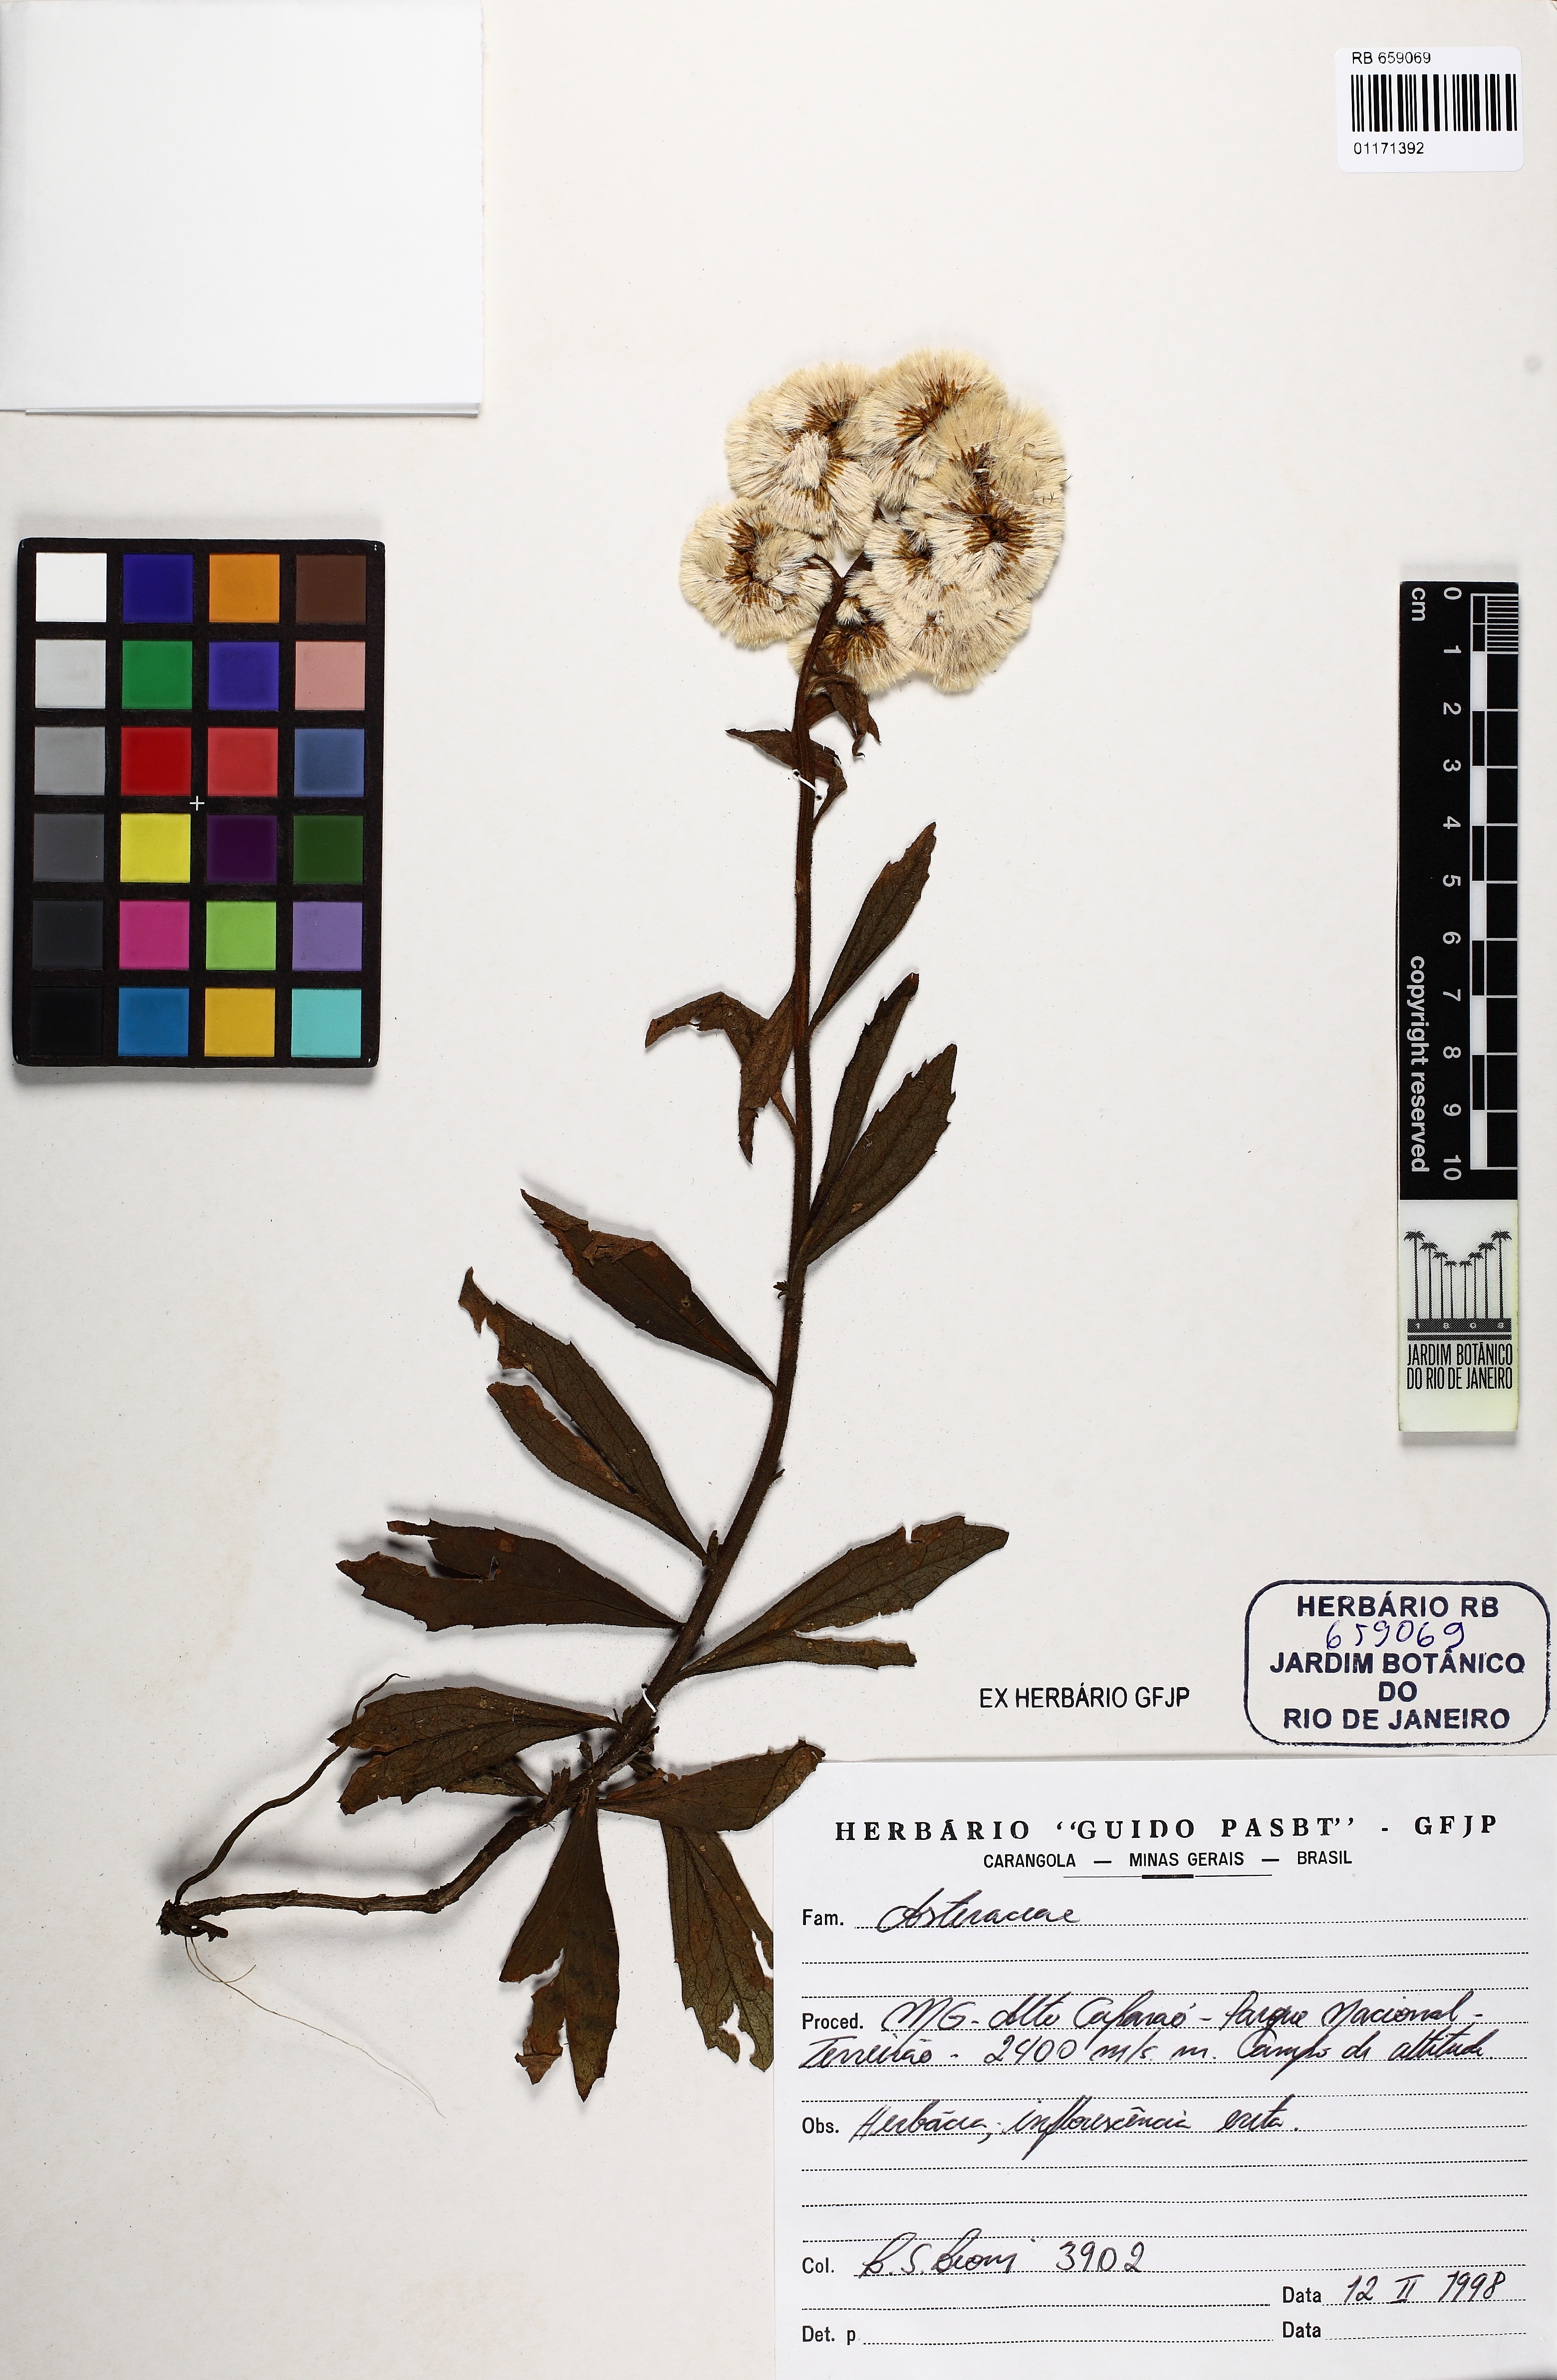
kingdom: Plantae
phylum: Tracheophyta
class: Magnoliopsida
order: Asterales
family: Asteraceae
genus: Pterocaulon
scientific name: Pterocaulon
